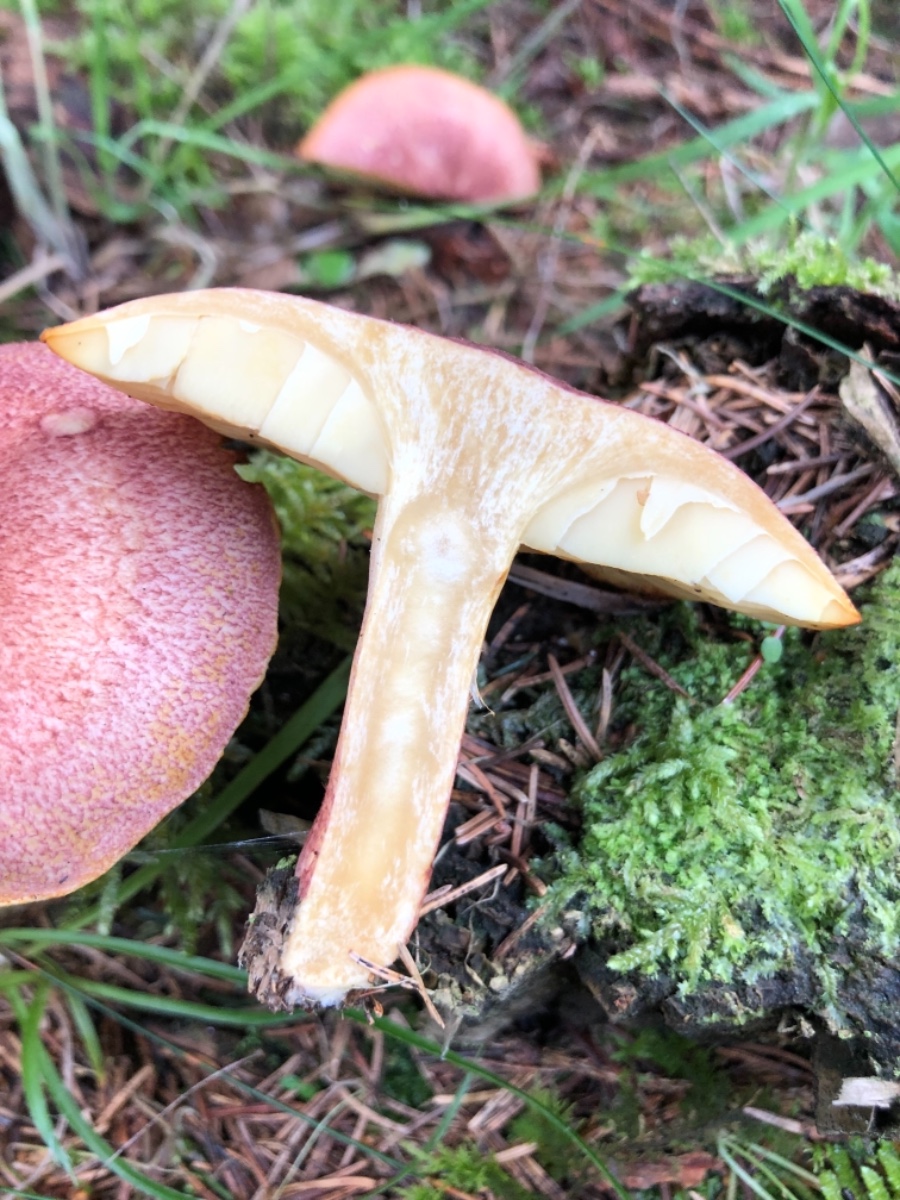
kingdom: Fungi
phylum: Basidiomycota
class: Agaricomycetes
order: Agaricales
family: Tricholomataceae
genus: Tricholomopsis
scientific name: Tricholomopsis rutilans
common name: purpur-væbnerhat
